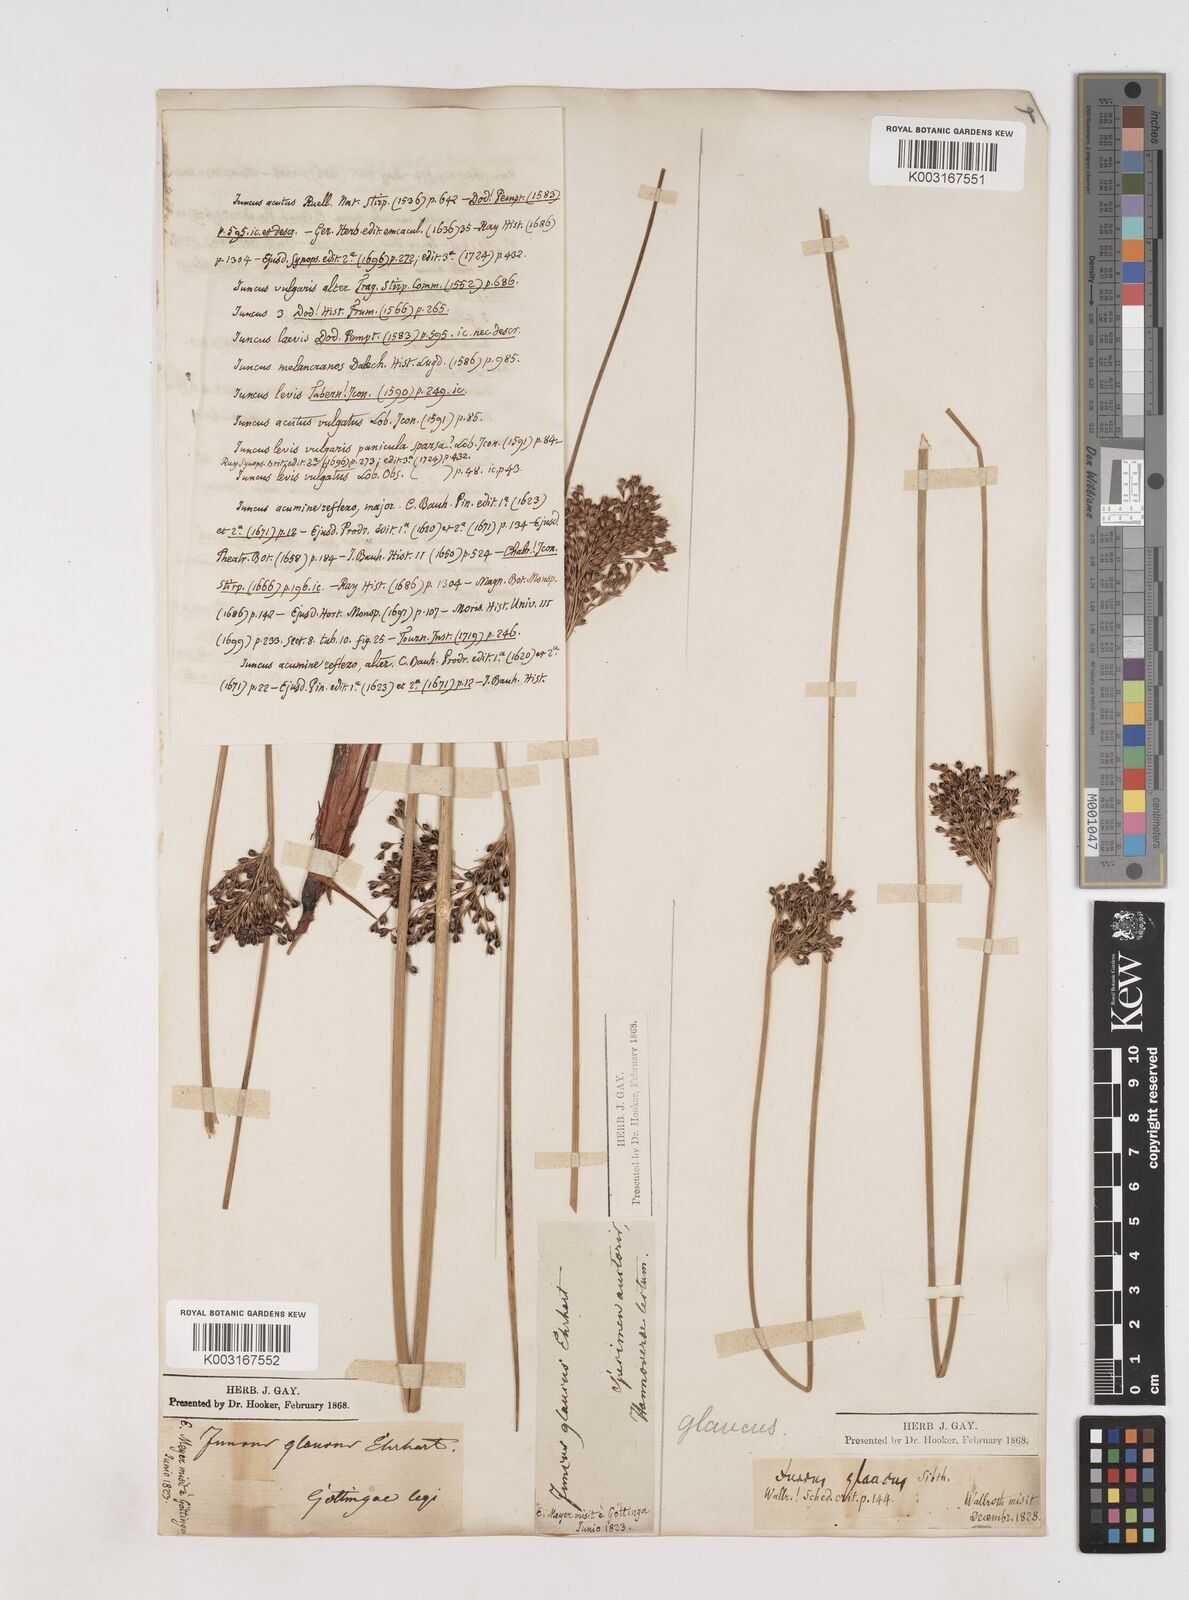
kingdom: Plantae
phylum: Tracheophyta
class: Liliopsida
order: Poales
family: Juncaceae
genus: Juncus
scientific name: Juncus inflexus
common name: Hard rush
